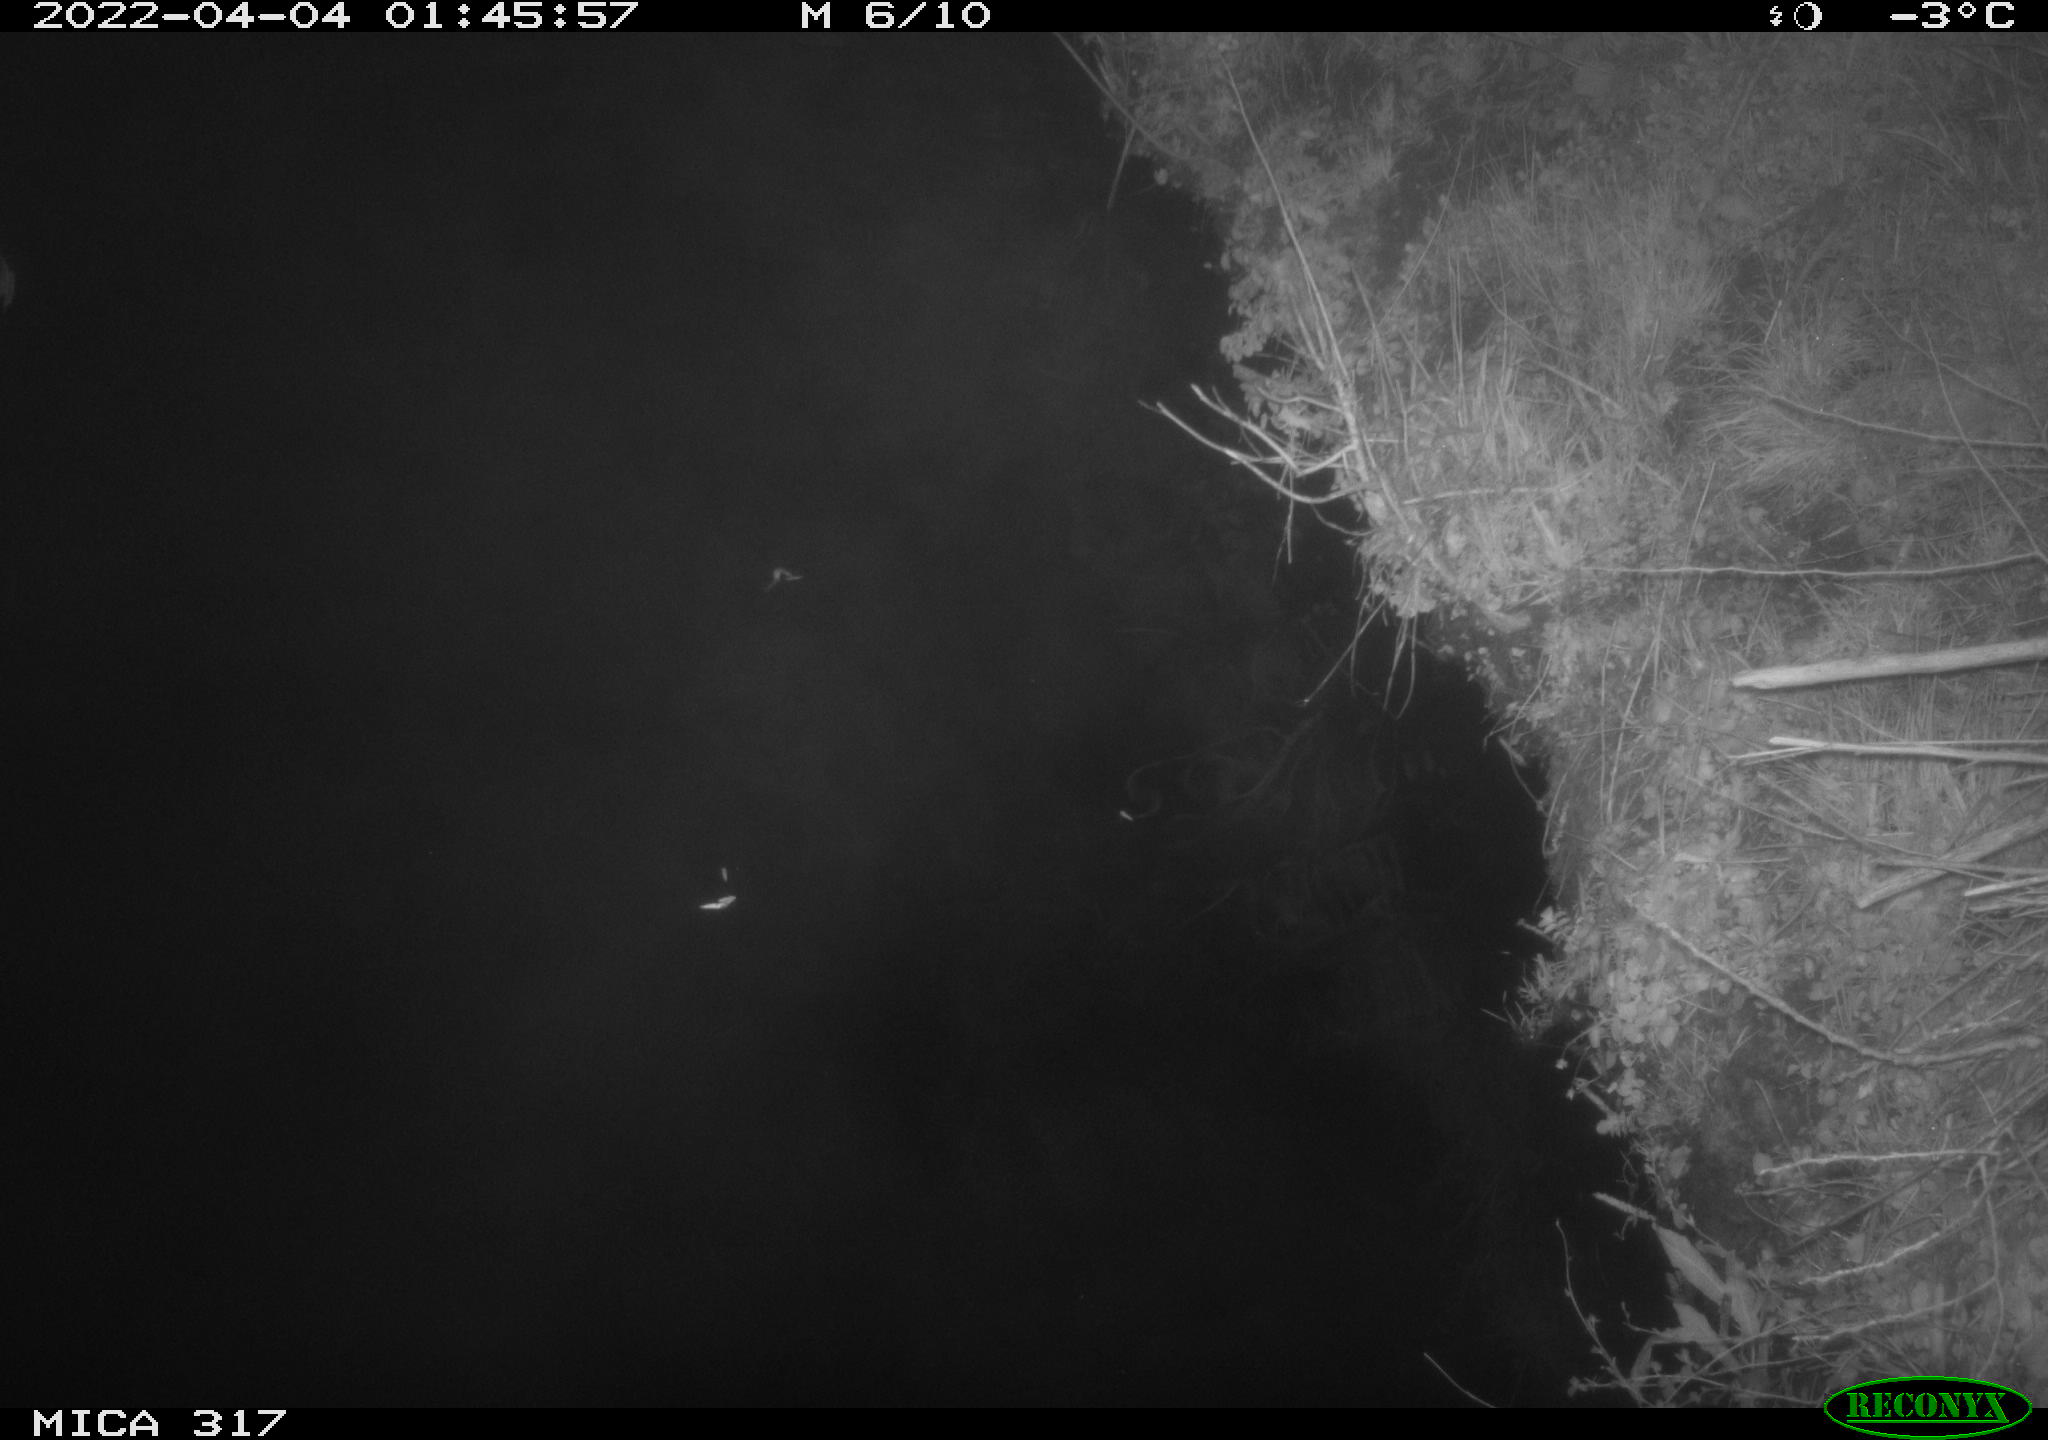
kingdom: Animalia
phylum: Chordata
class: Aves
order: Anseriformes
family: Anatidae
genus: Anas
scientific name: Anas platyrhynchos
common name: Mallard
